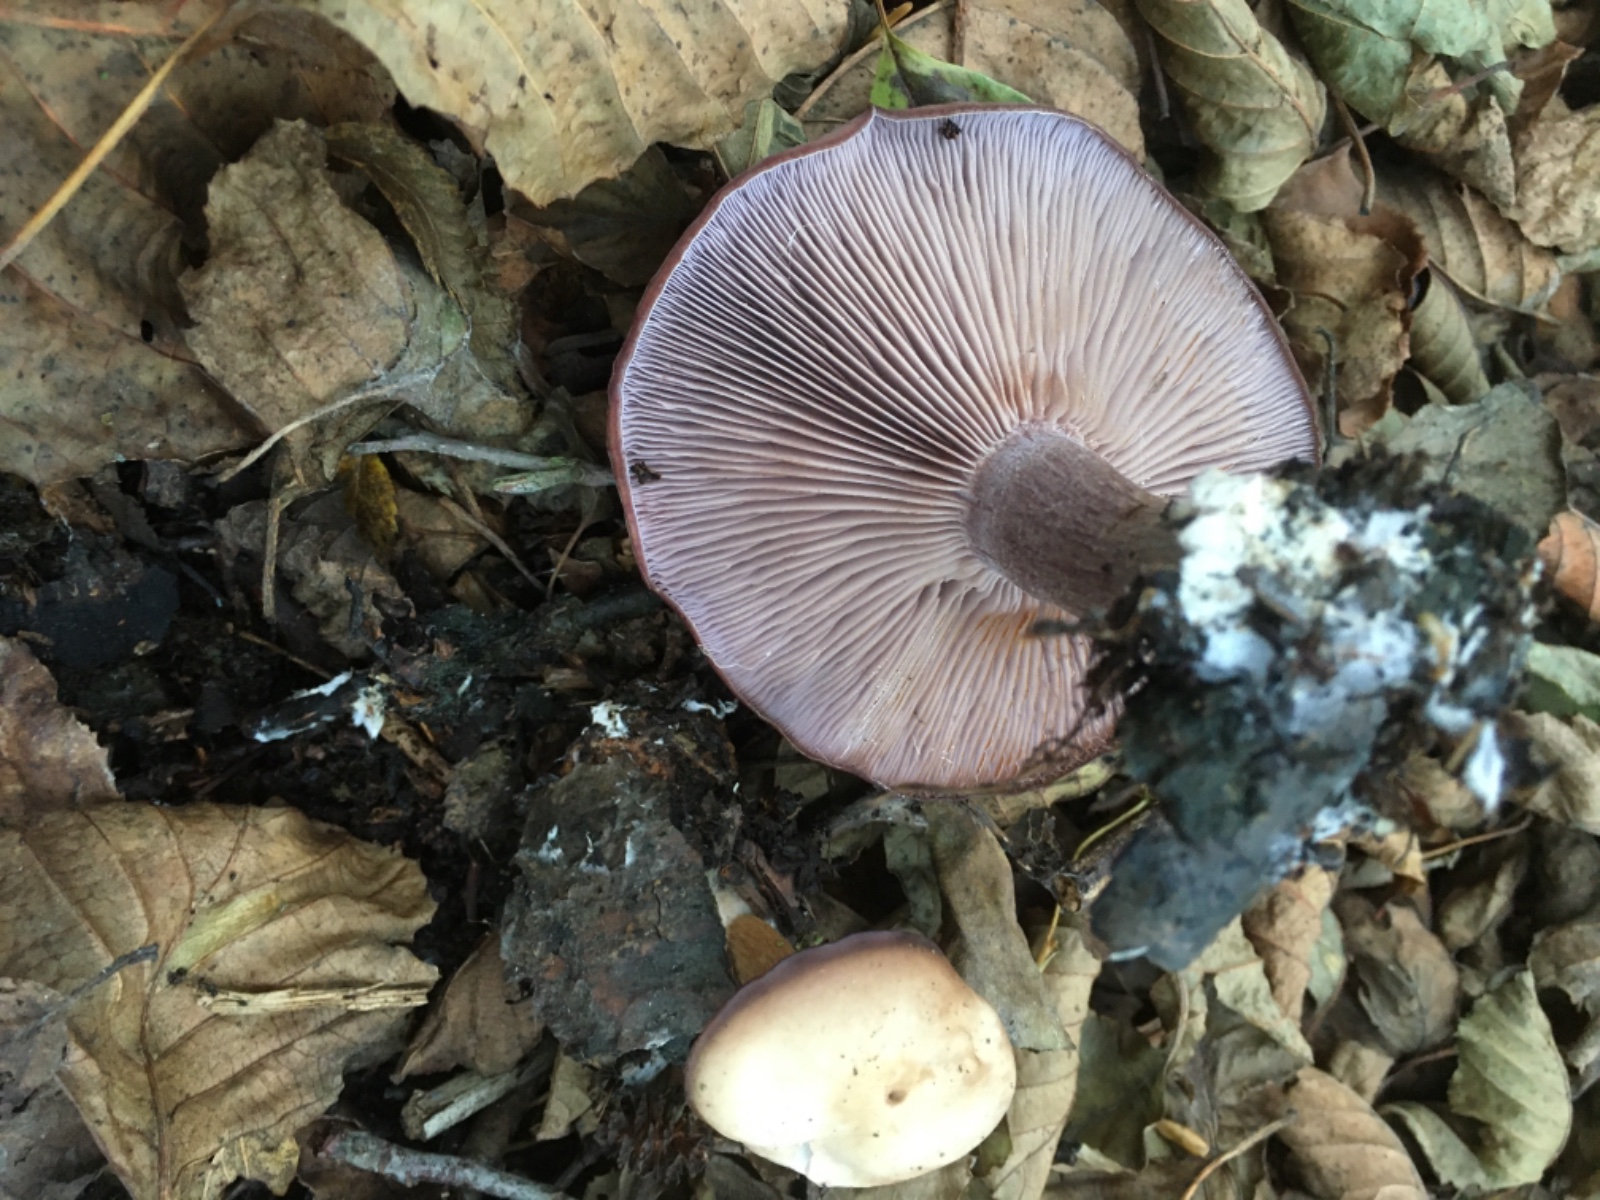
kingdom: Fungi
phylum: Basidiomycota
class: Agaricomycetes
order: Agaricales
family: Tricholomataceae
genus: Lepista
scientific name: Lepista nuda
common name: violet hekseringshat
